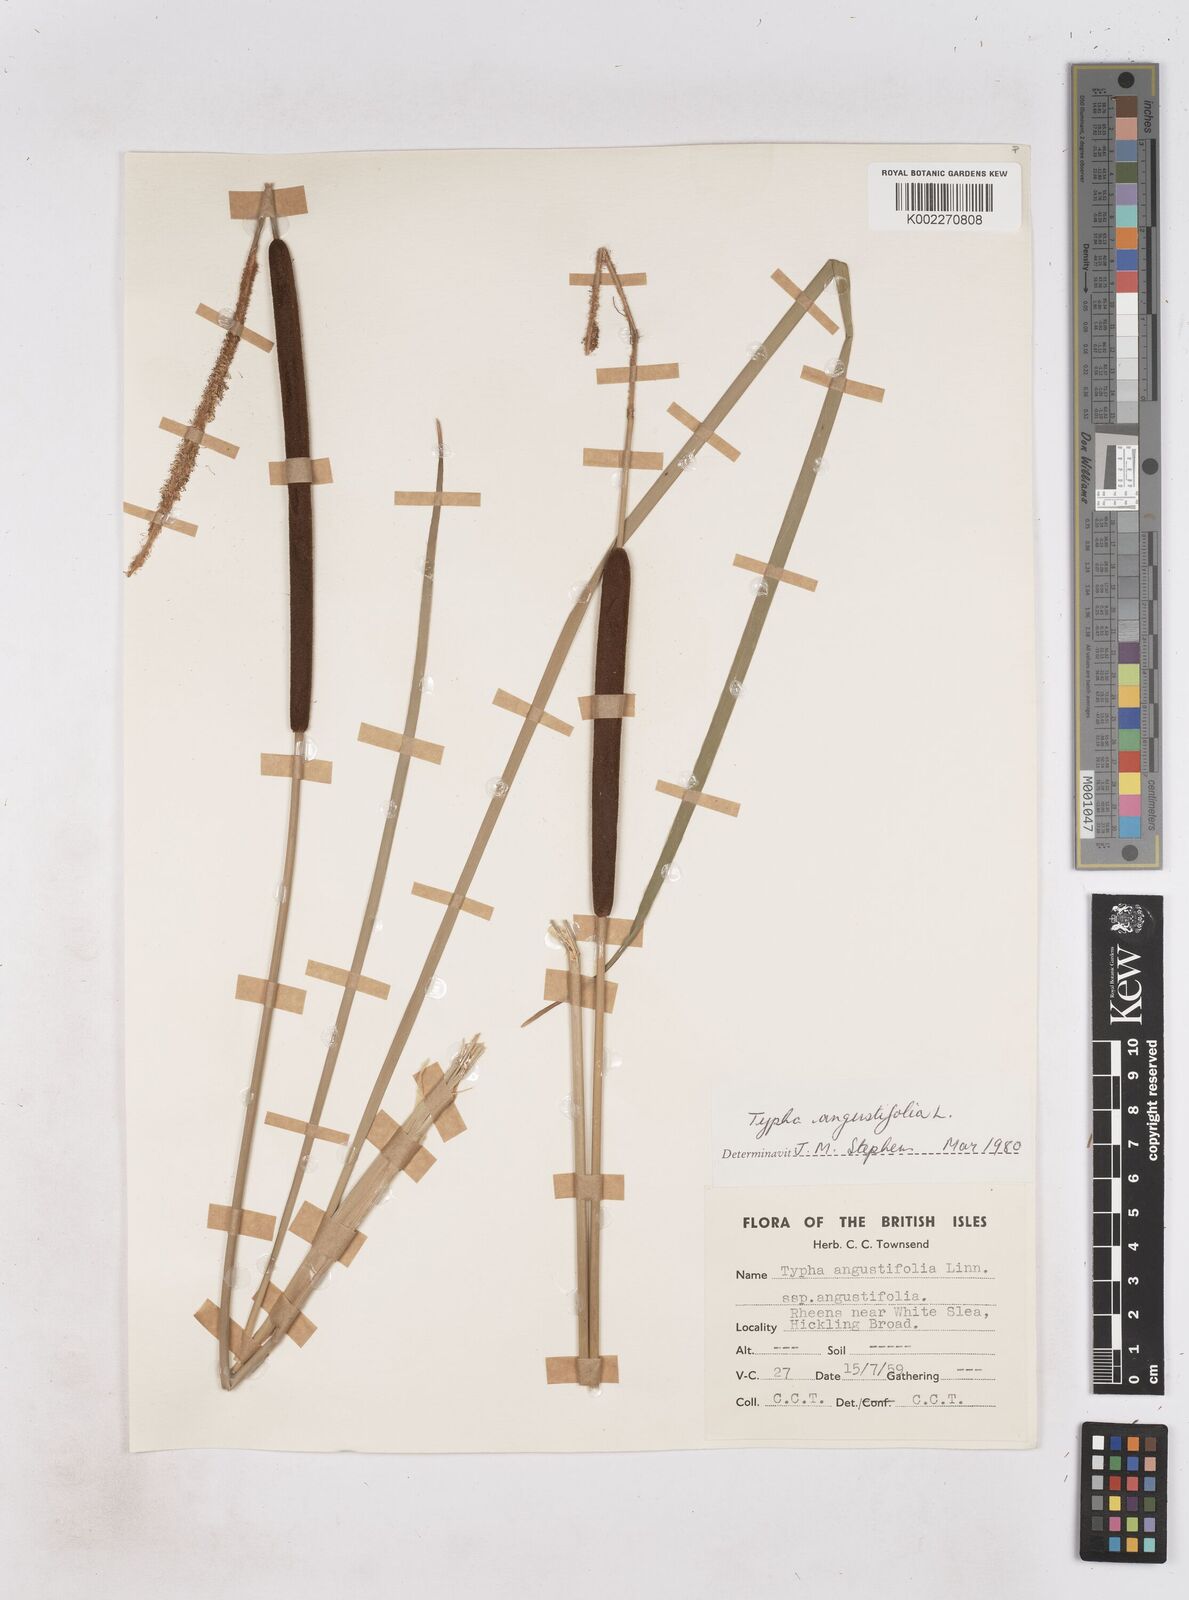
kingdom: Plantae
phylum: Tracheophyta
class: Liliopsida
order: Poales
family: Typhaceae
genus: Typha
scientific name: Typha angustifolia
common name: Lesser bulrush
